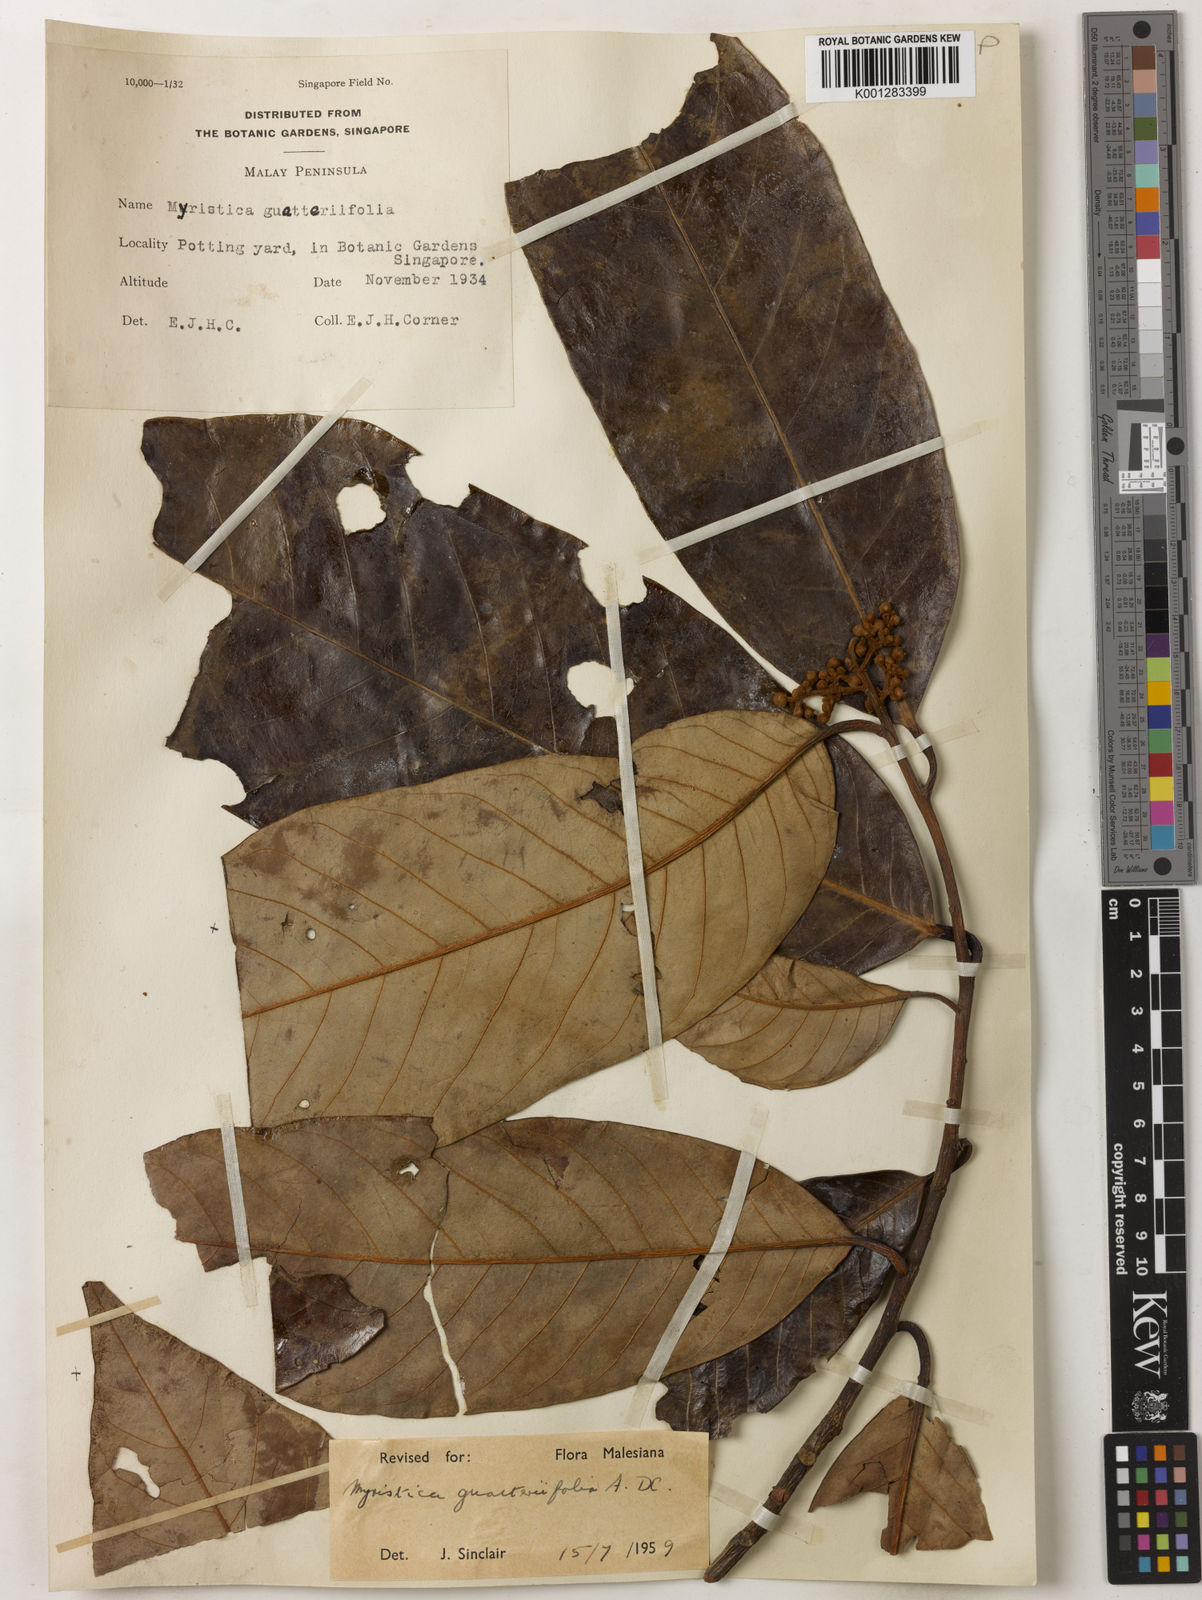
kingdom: Plantae
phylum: Tracheophyta
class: Magnoliopsida
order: Magnoliales
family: Myristicaceae
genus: Myristica
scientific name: Myristica
